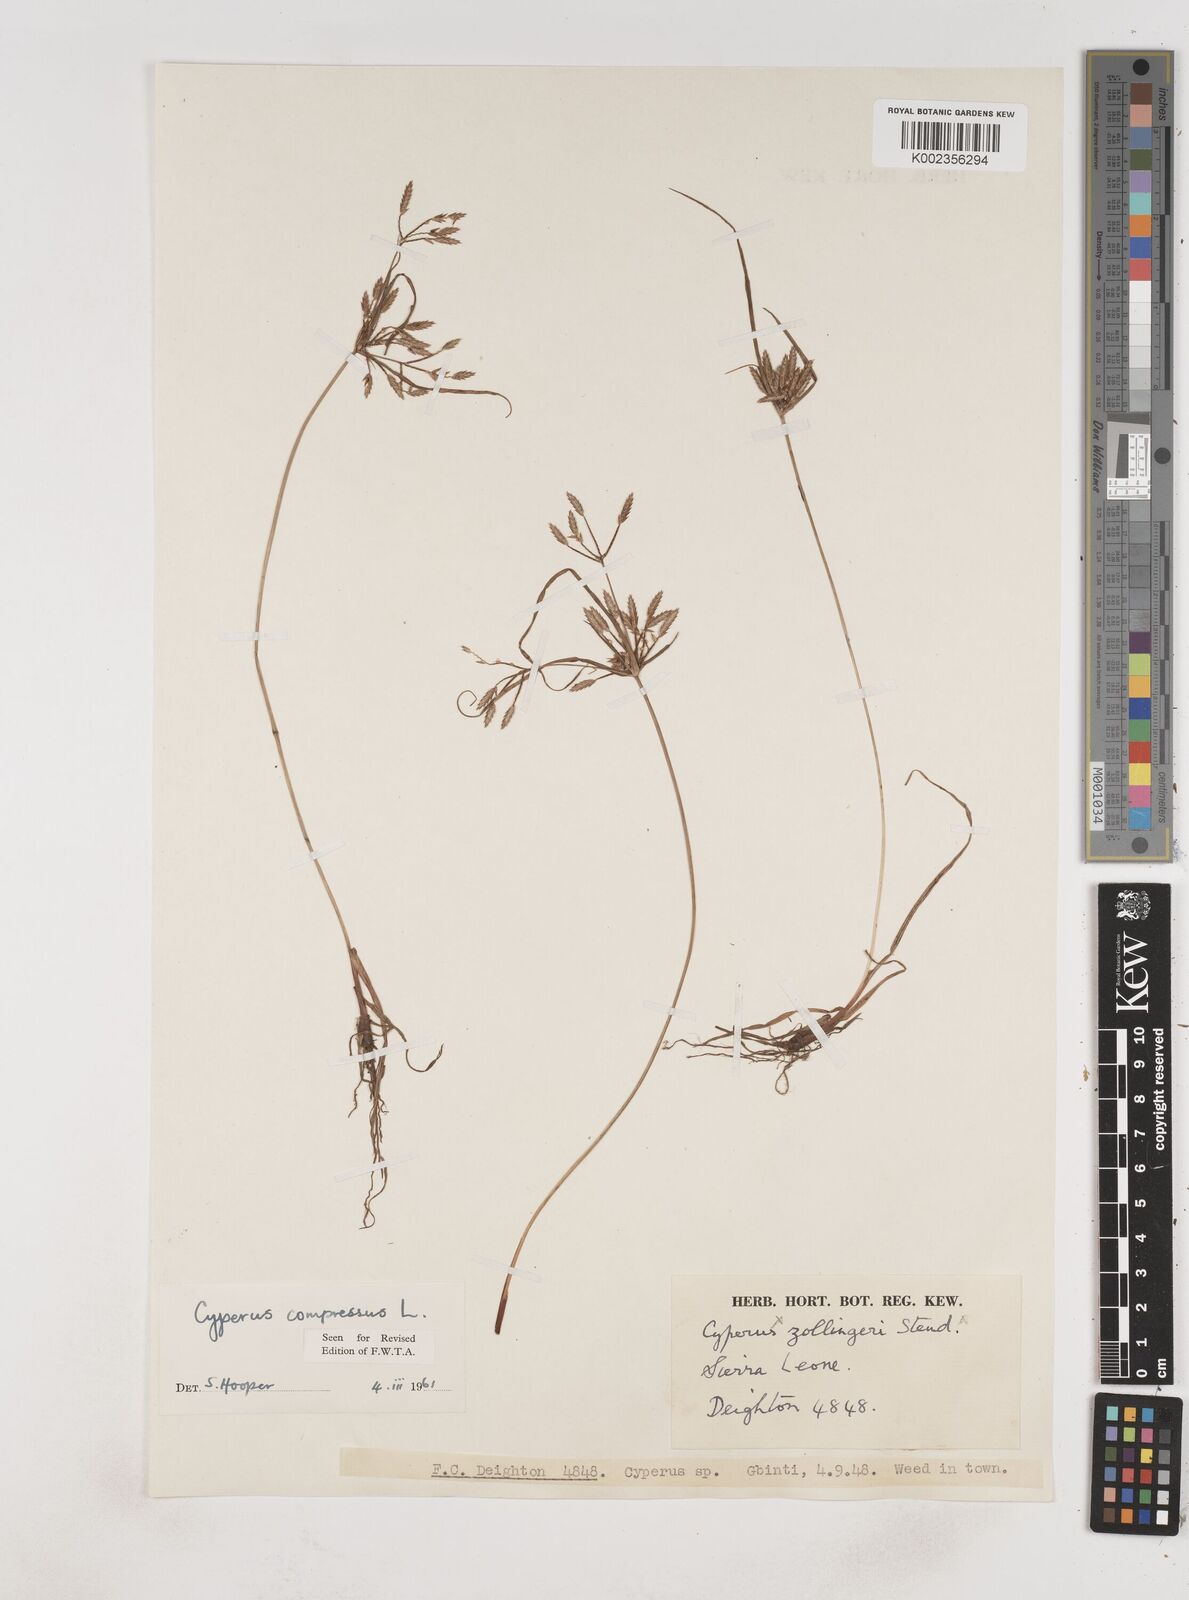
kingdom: Plantae
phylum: Tracheophyta
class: Liliopsida
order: Poales
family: Cyperaceae
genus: Cyperus
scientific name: Cyperus compressus
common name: Poorland flatsedge
